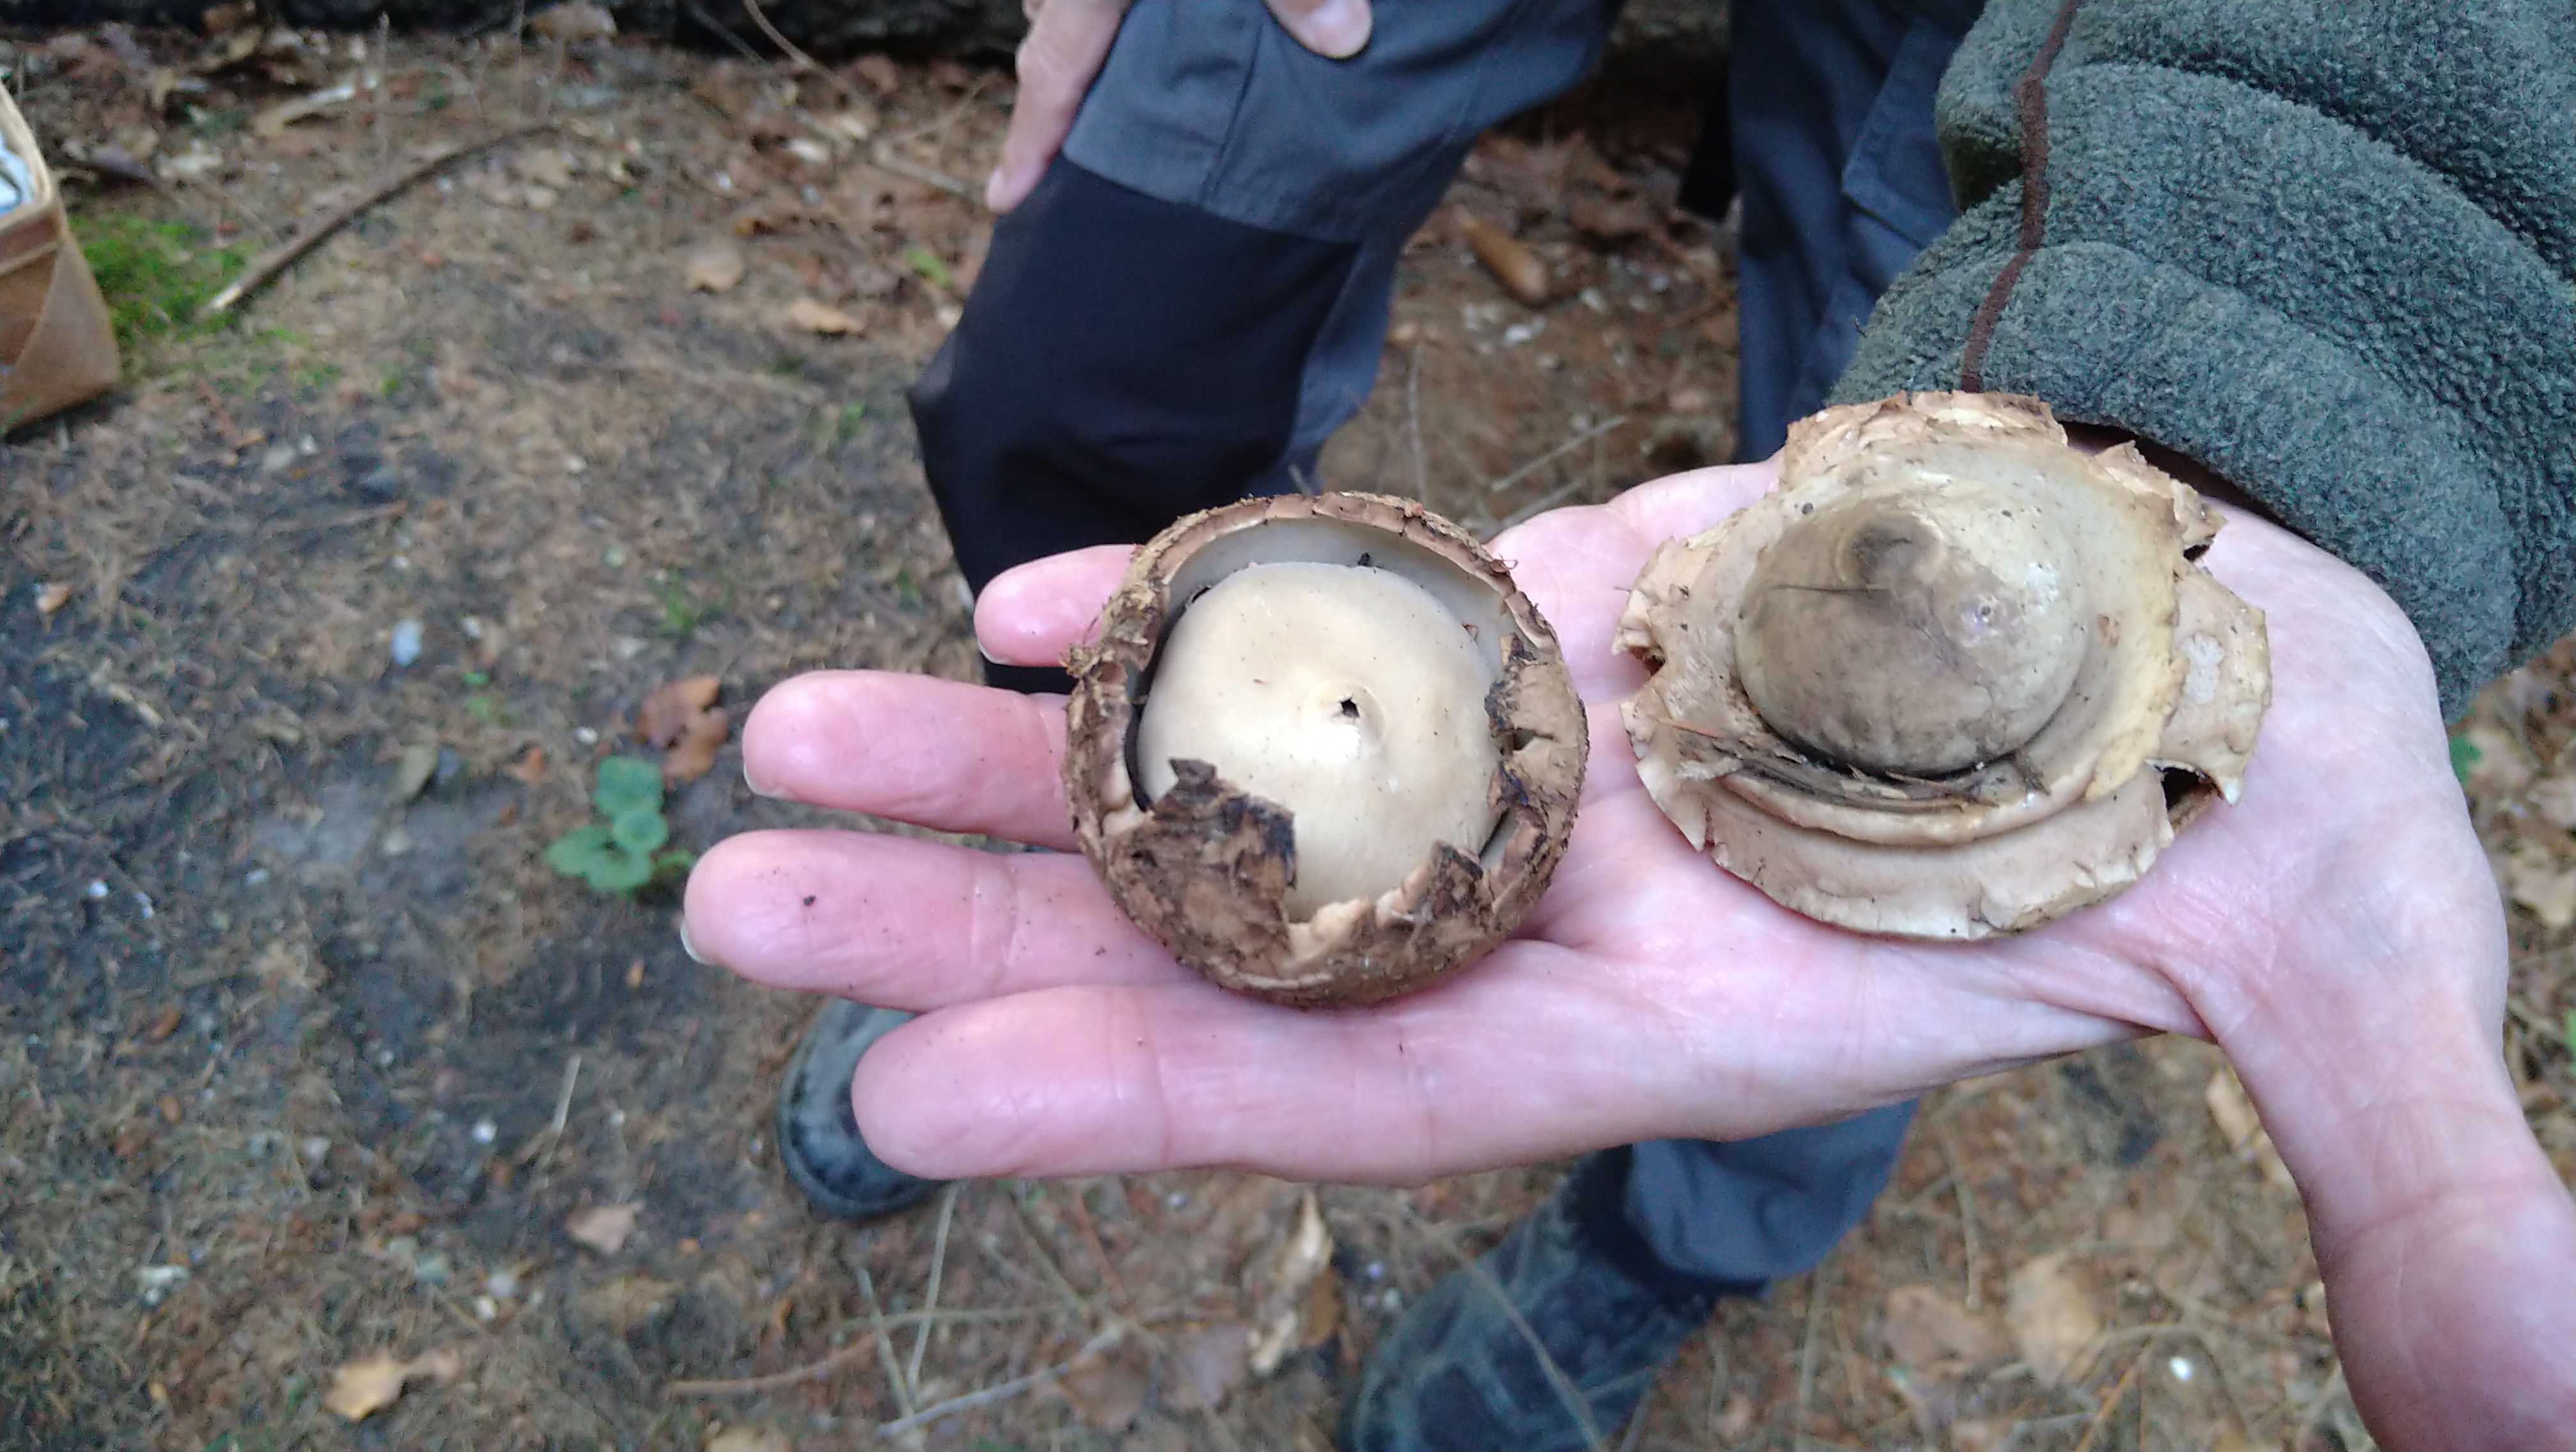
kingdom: Fungi
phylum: Basidiomycota
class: Agaricomycetes
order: Geastrales
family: Geastraceae
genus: Geastrum
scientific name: Geastrum michelianum
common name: kødet stjernebold
